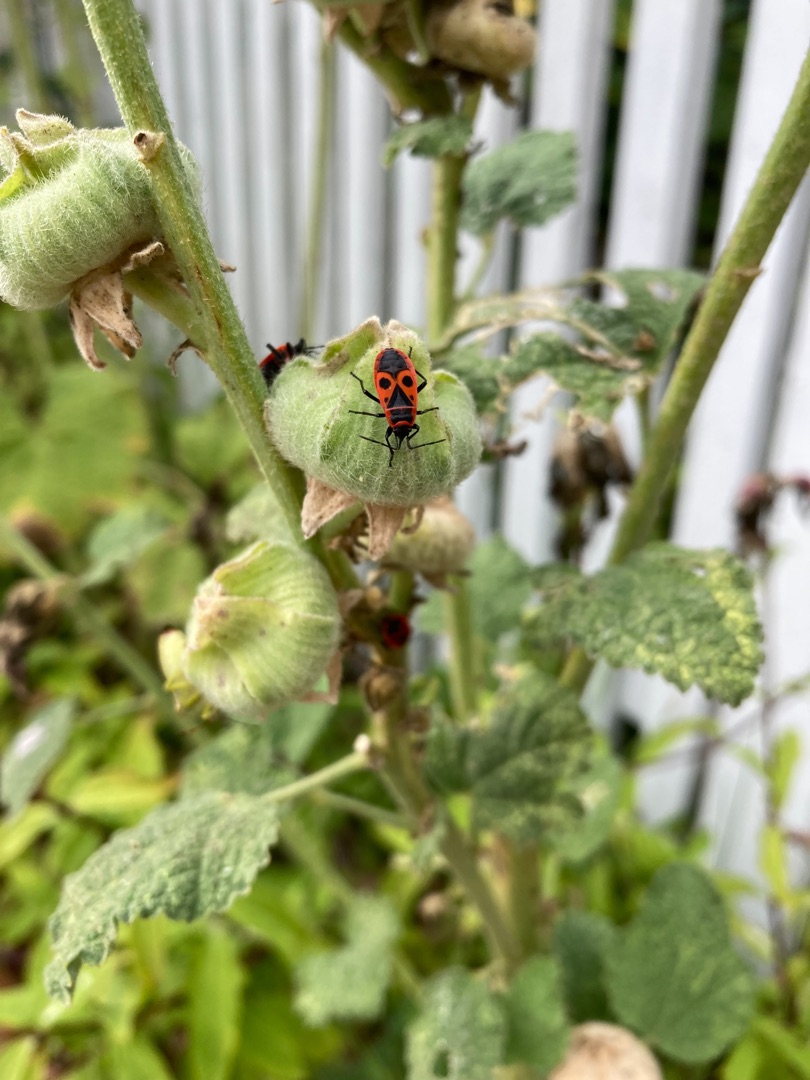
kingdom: Animalia
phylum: Arthropoda
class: Insecta
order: Hemiptera
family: Pyrrhocoridae
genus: Pyrrhocoris
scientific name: Pyrrhocoris apterus
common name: Ildtæge
